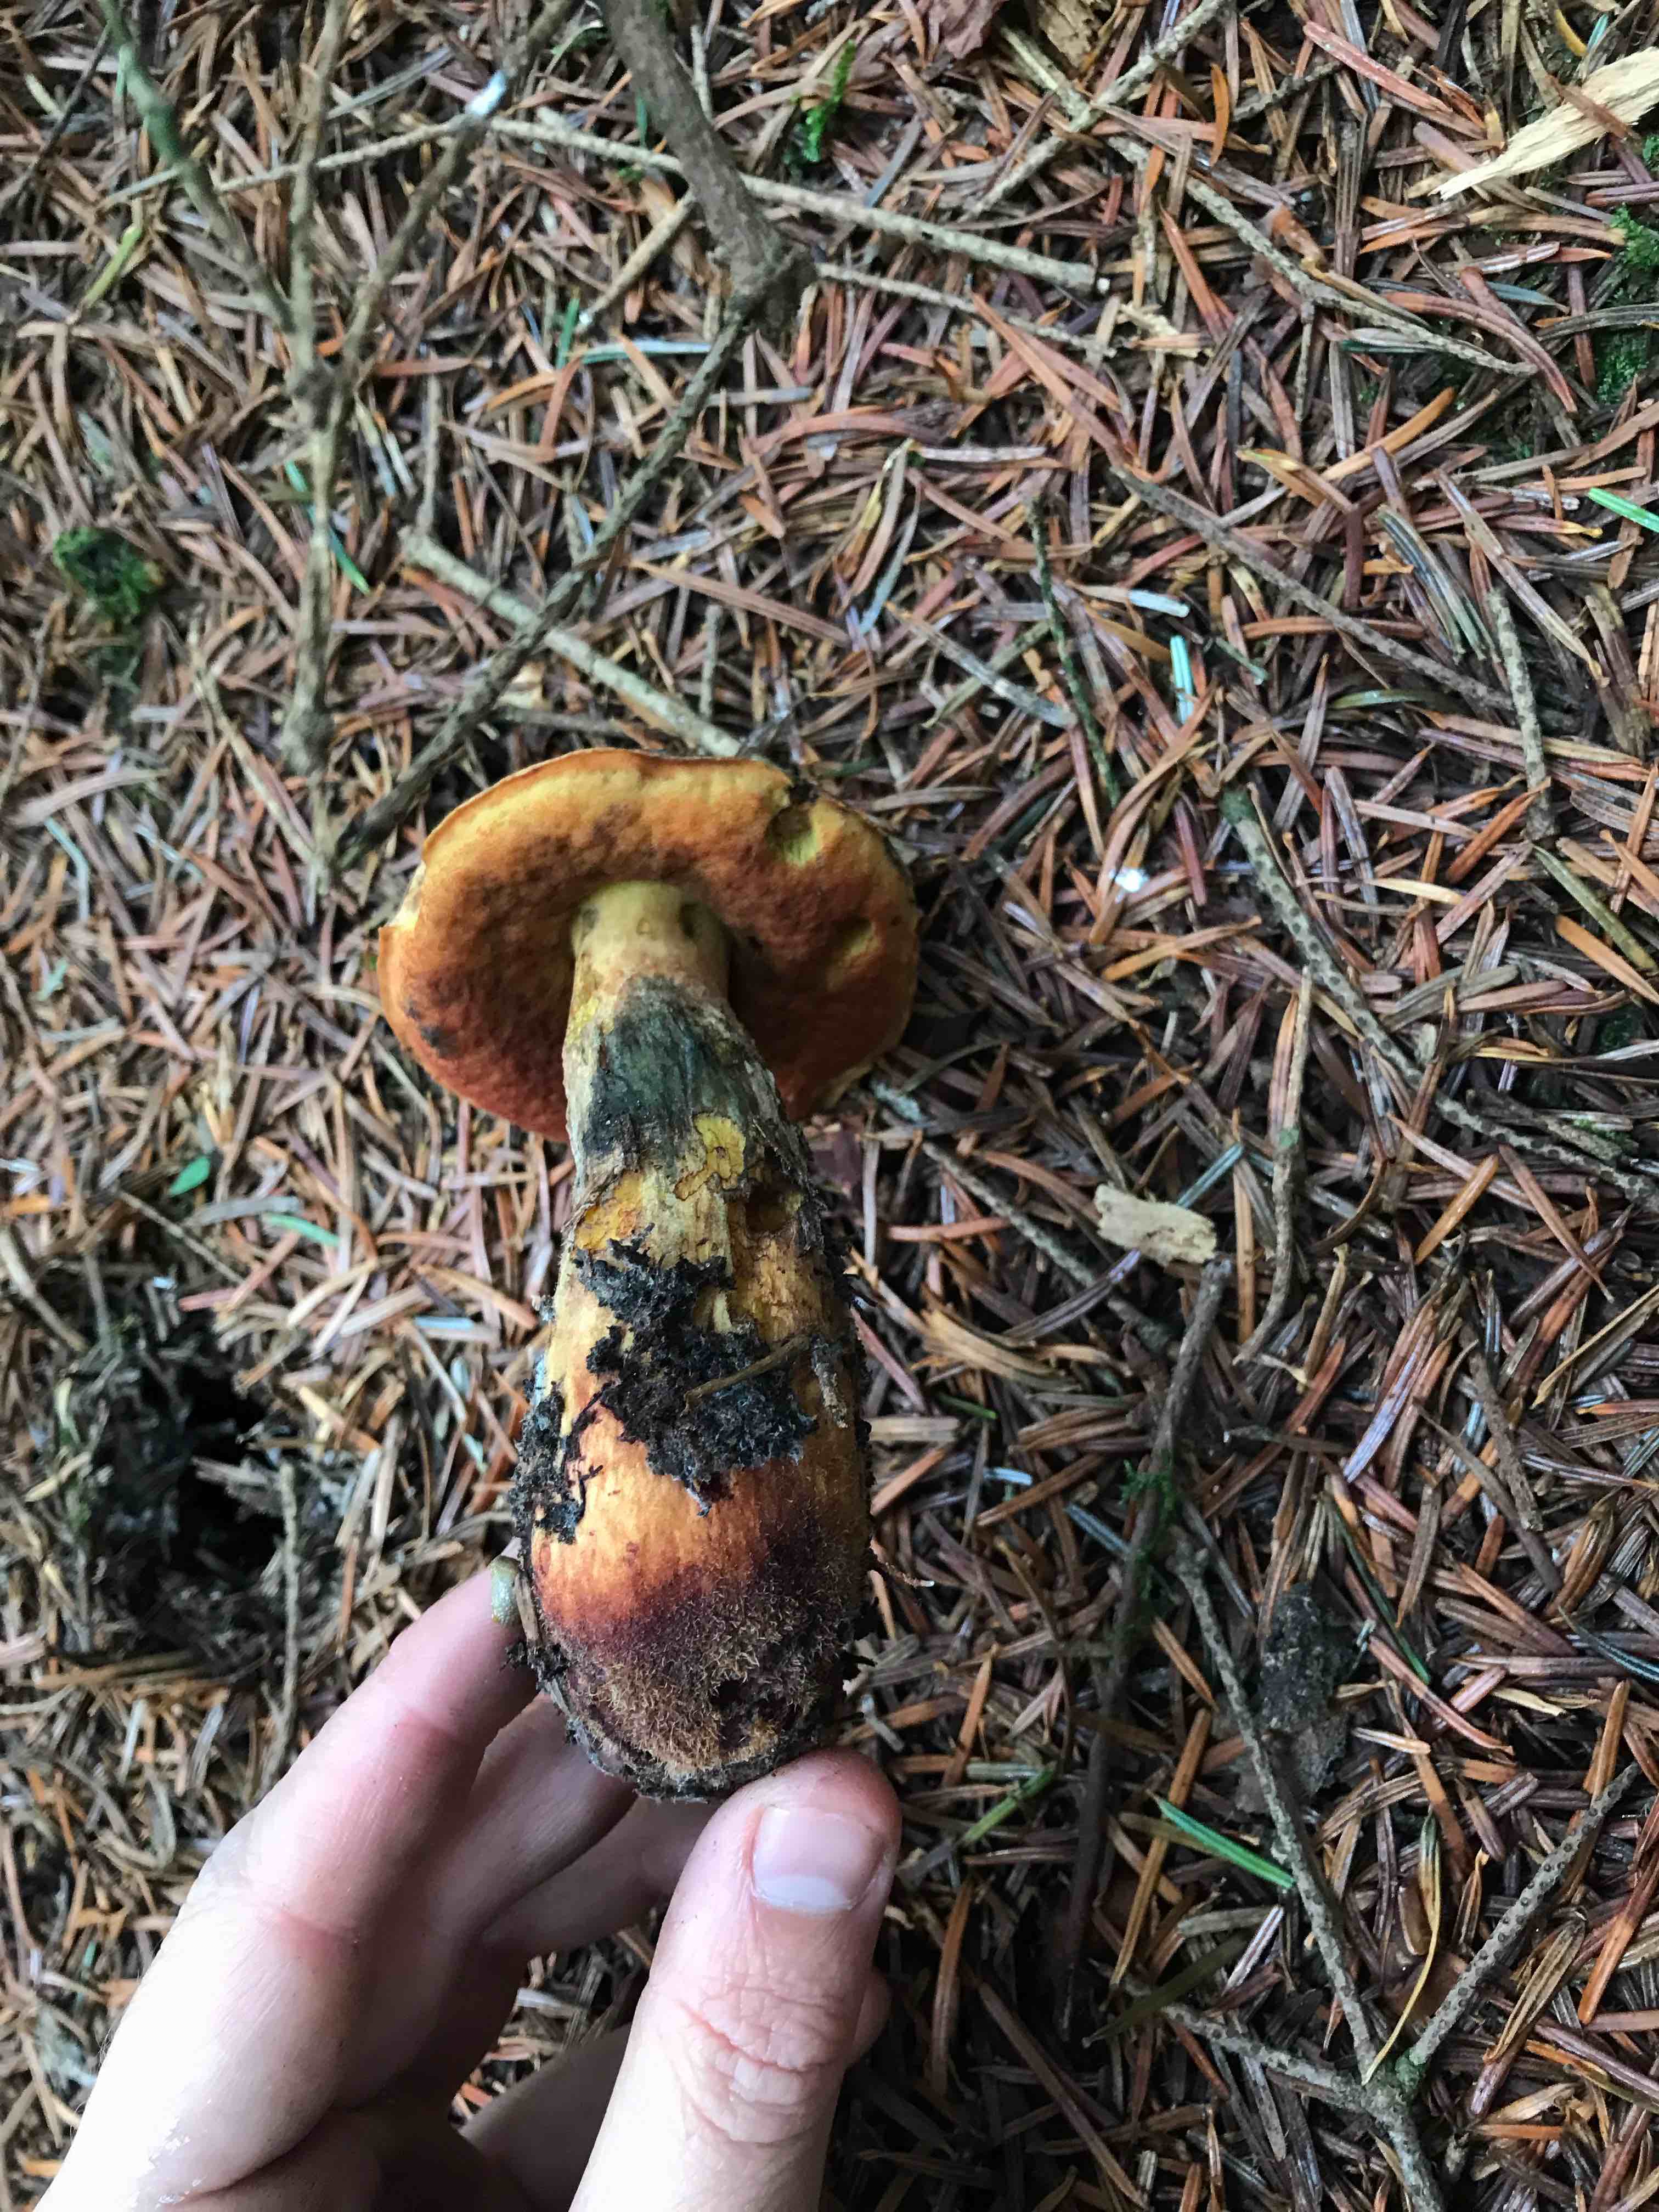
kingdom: Fungi
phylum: Basidiomycota
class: Agaricomycetes
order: Boletales
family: Boletaceae
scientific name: Boletaceae
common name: rørhatfamilien
